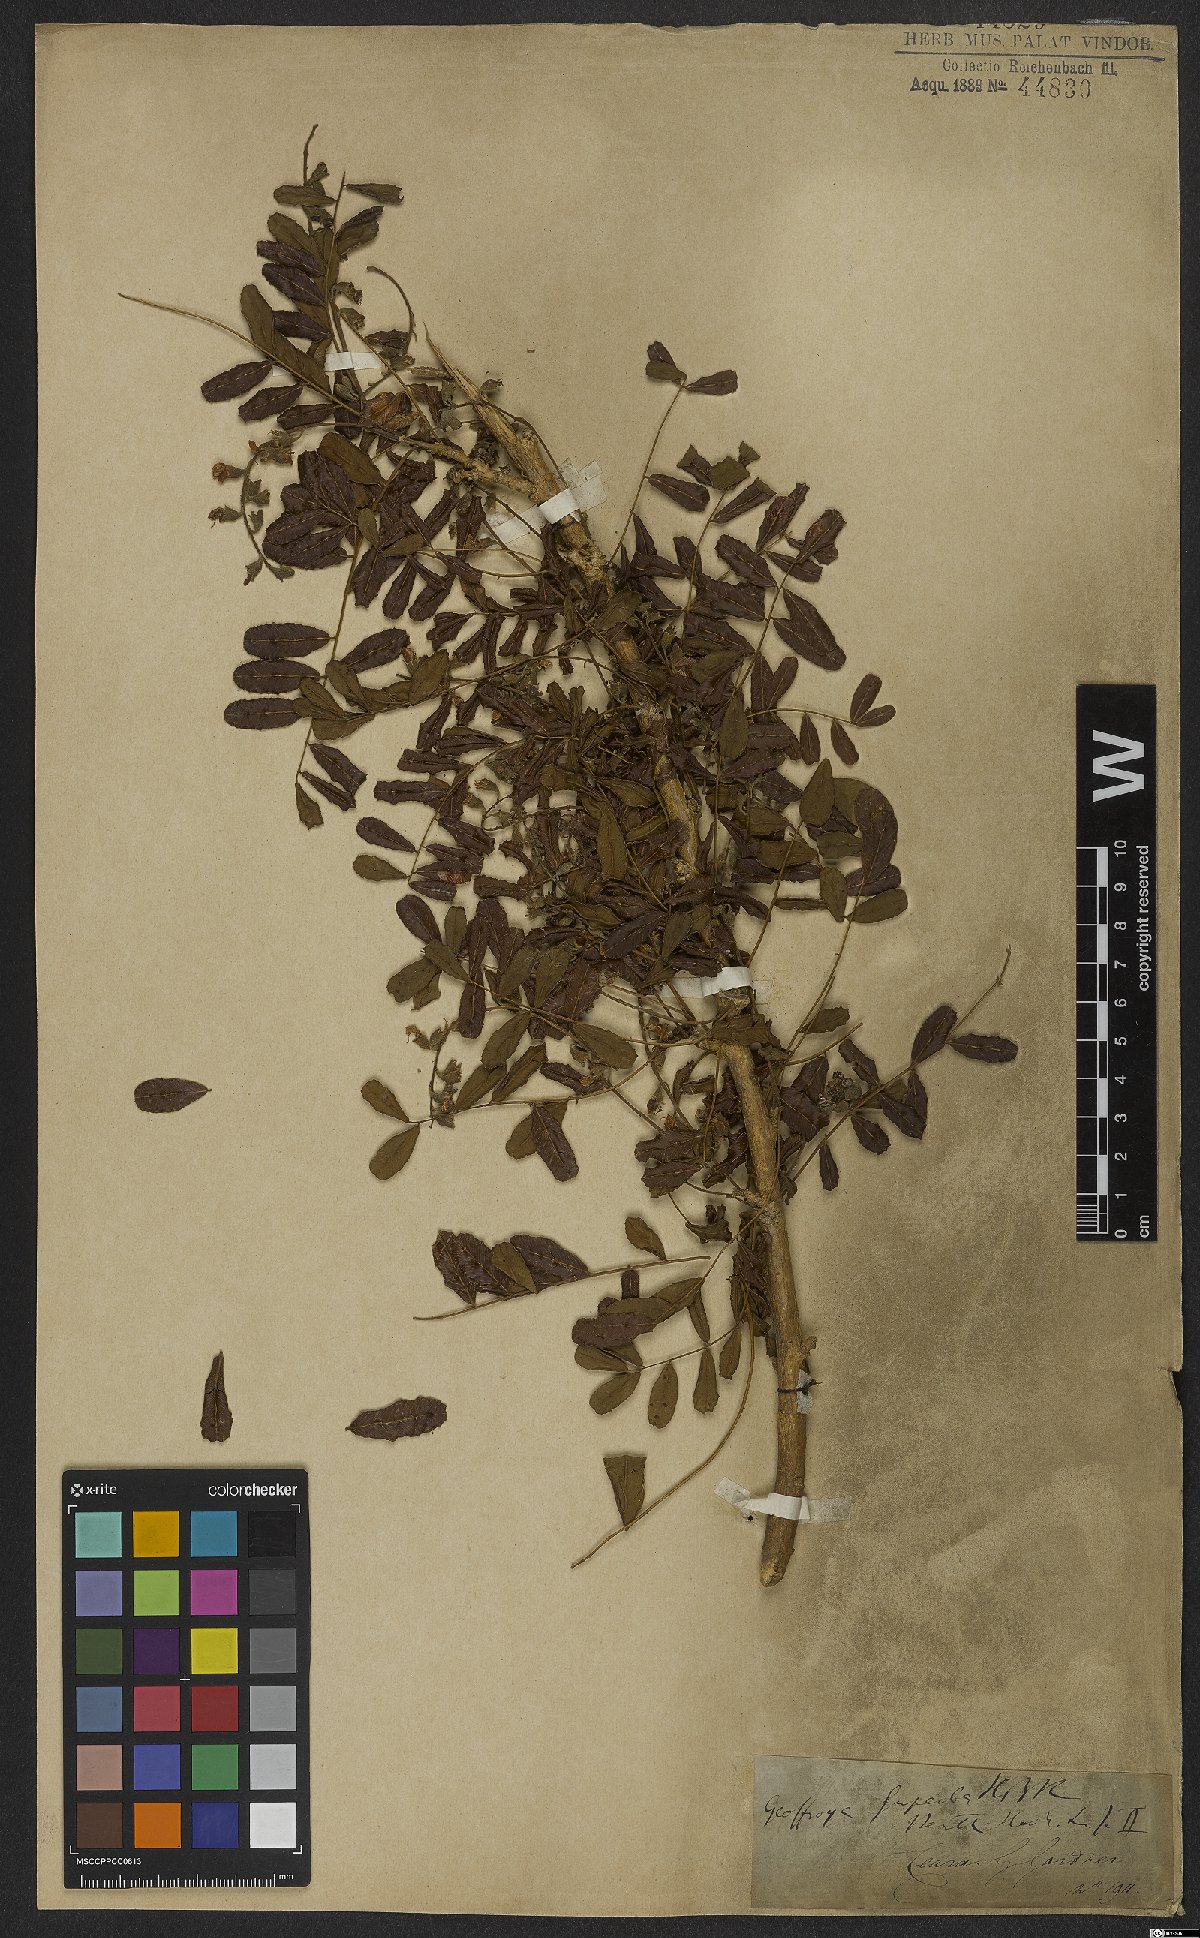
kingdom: Plantae
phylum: Tracheophyta
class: Magnoliopsida
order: Fabales
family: Fabaceae
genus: Geoffroea
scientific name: Geoffroea spinosa
